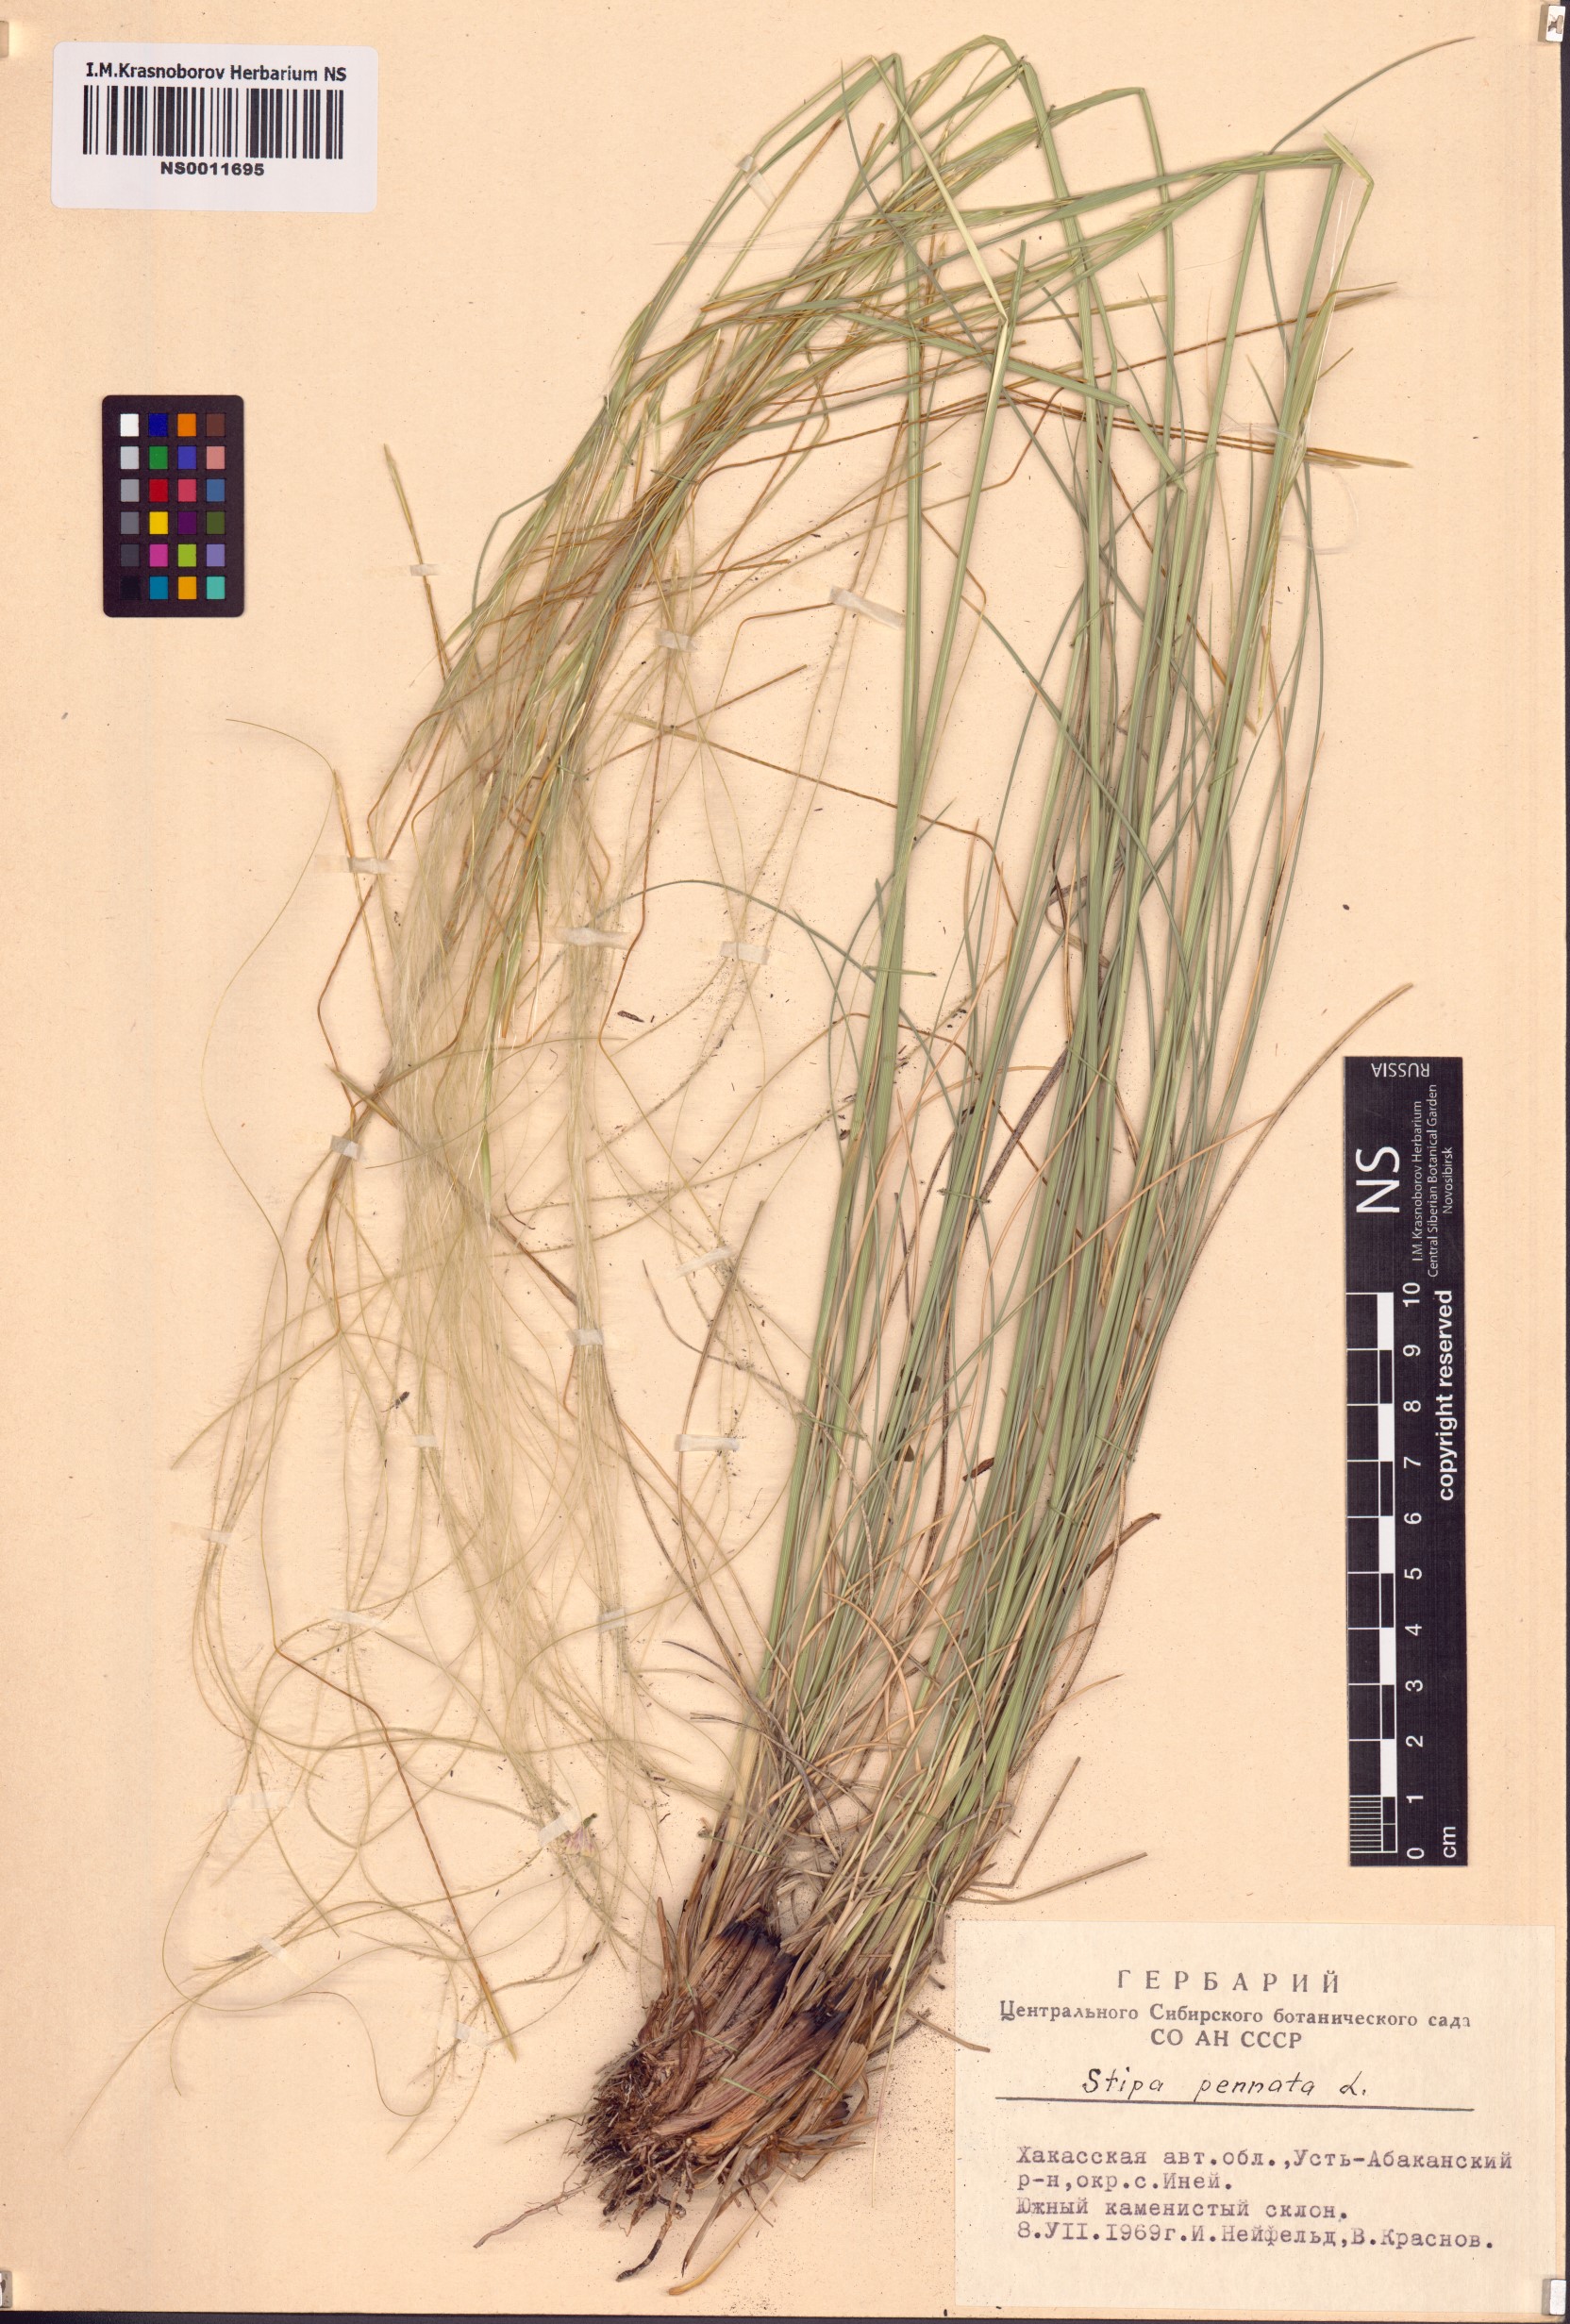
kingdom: Plantae
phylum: Tracheophyta
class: Liliopsida
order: Poales
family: Poaceae
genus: Stipa
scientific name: Stipa pennata
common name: European feather grass
